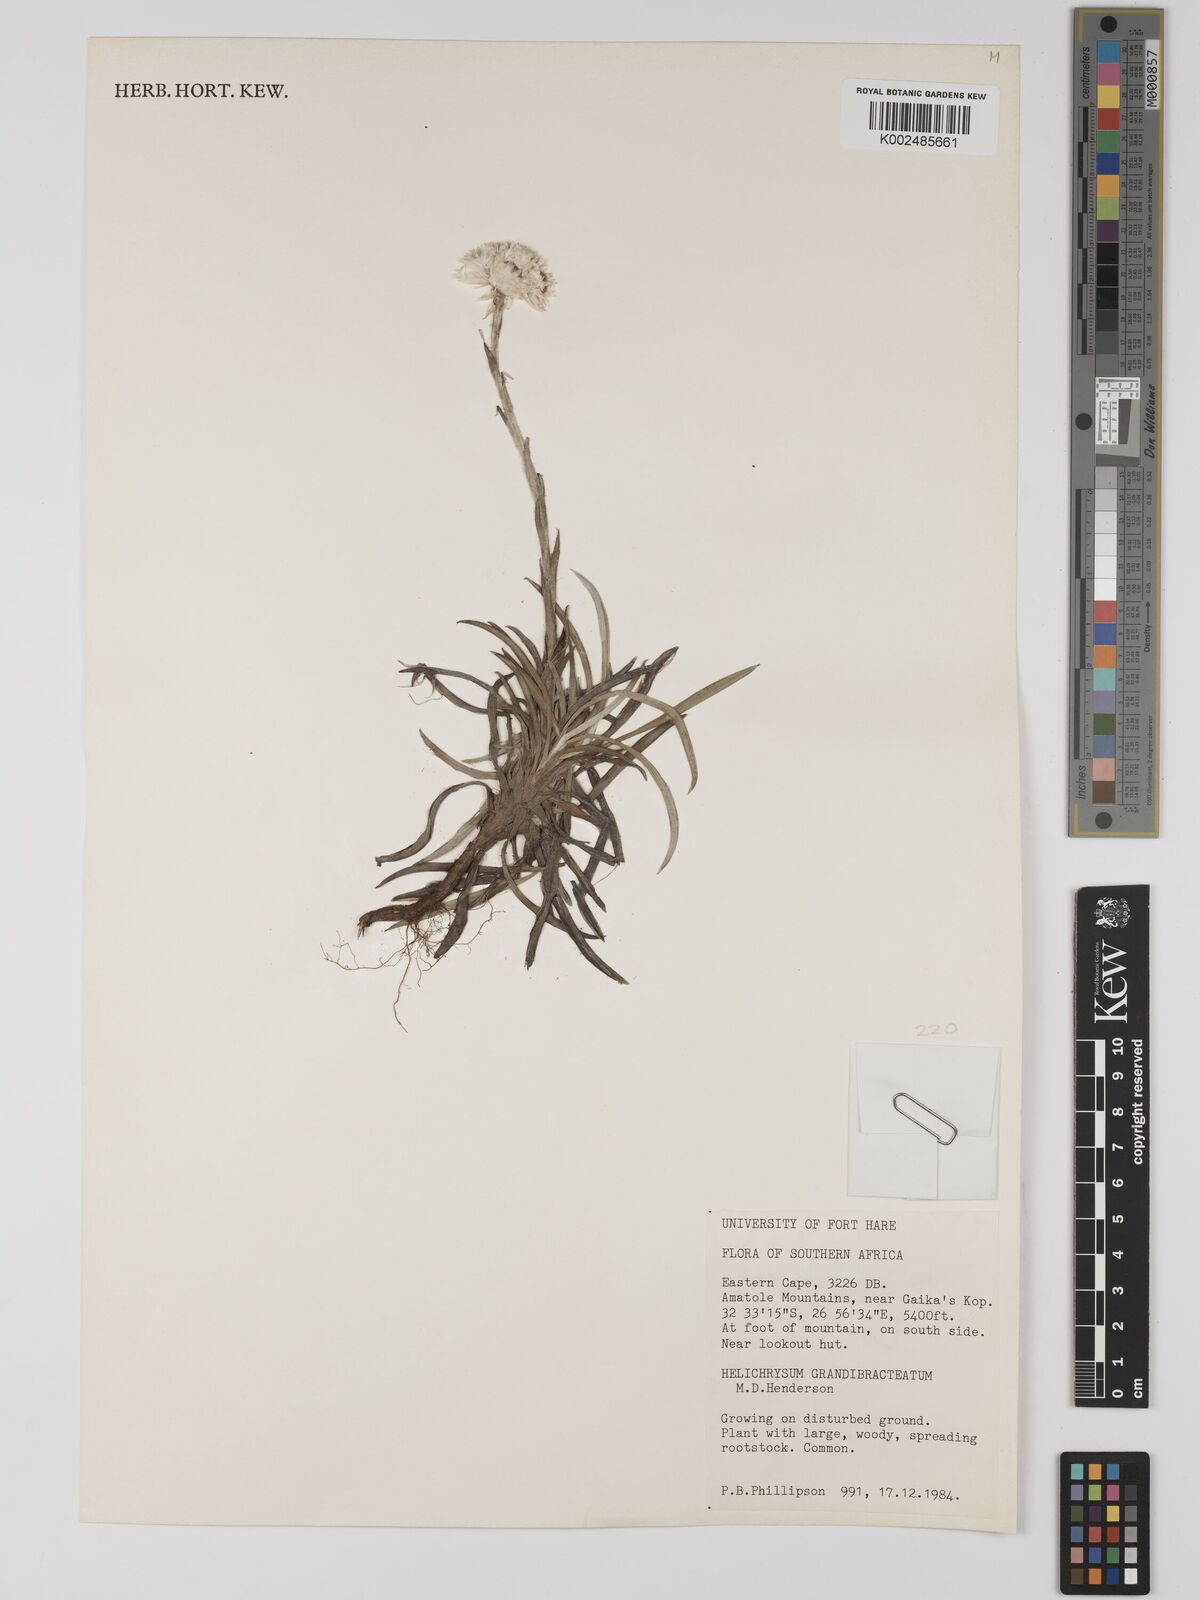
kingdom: Plantae
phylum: Tracheophyta
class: Magnoliopsida
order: Asterales
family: Asteraceae
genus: Helichrysum
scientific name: Helichrysum grandibracteatum
